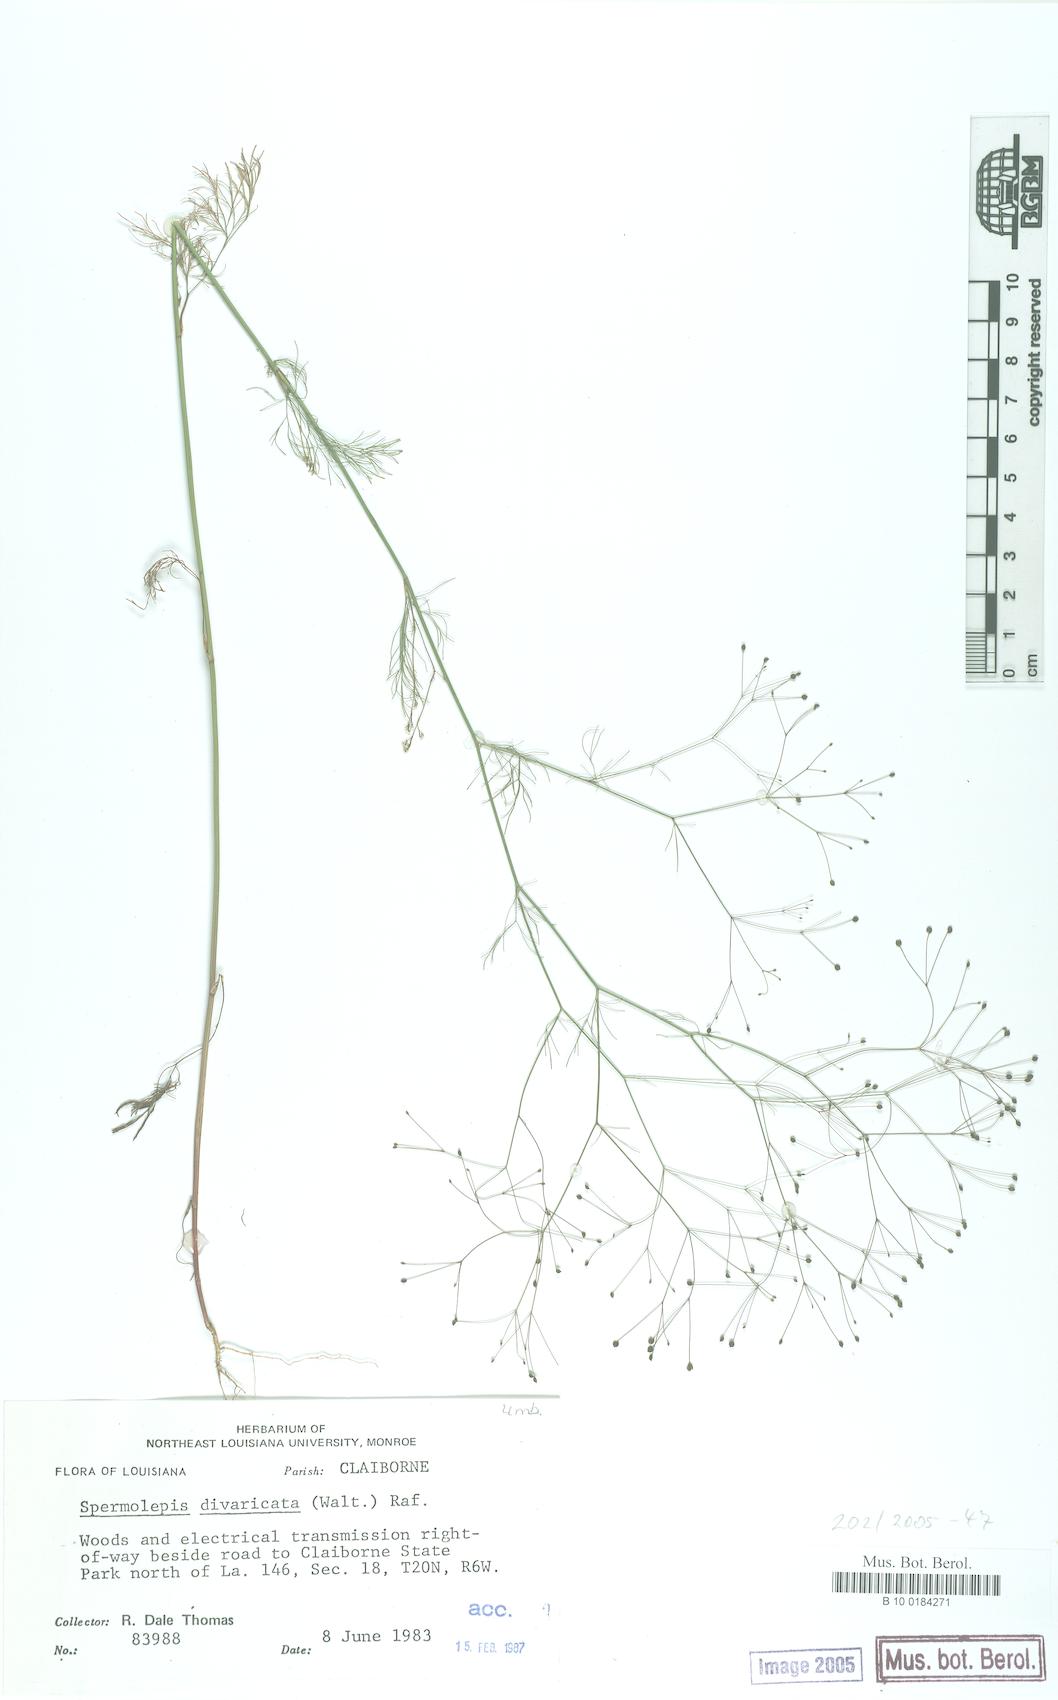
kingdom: Plantae
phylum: Tracheophyta
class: Magnoliopsida
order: Apiales
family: Apiaceae
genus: Spermolepis
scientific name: Spermolepis divaricata
